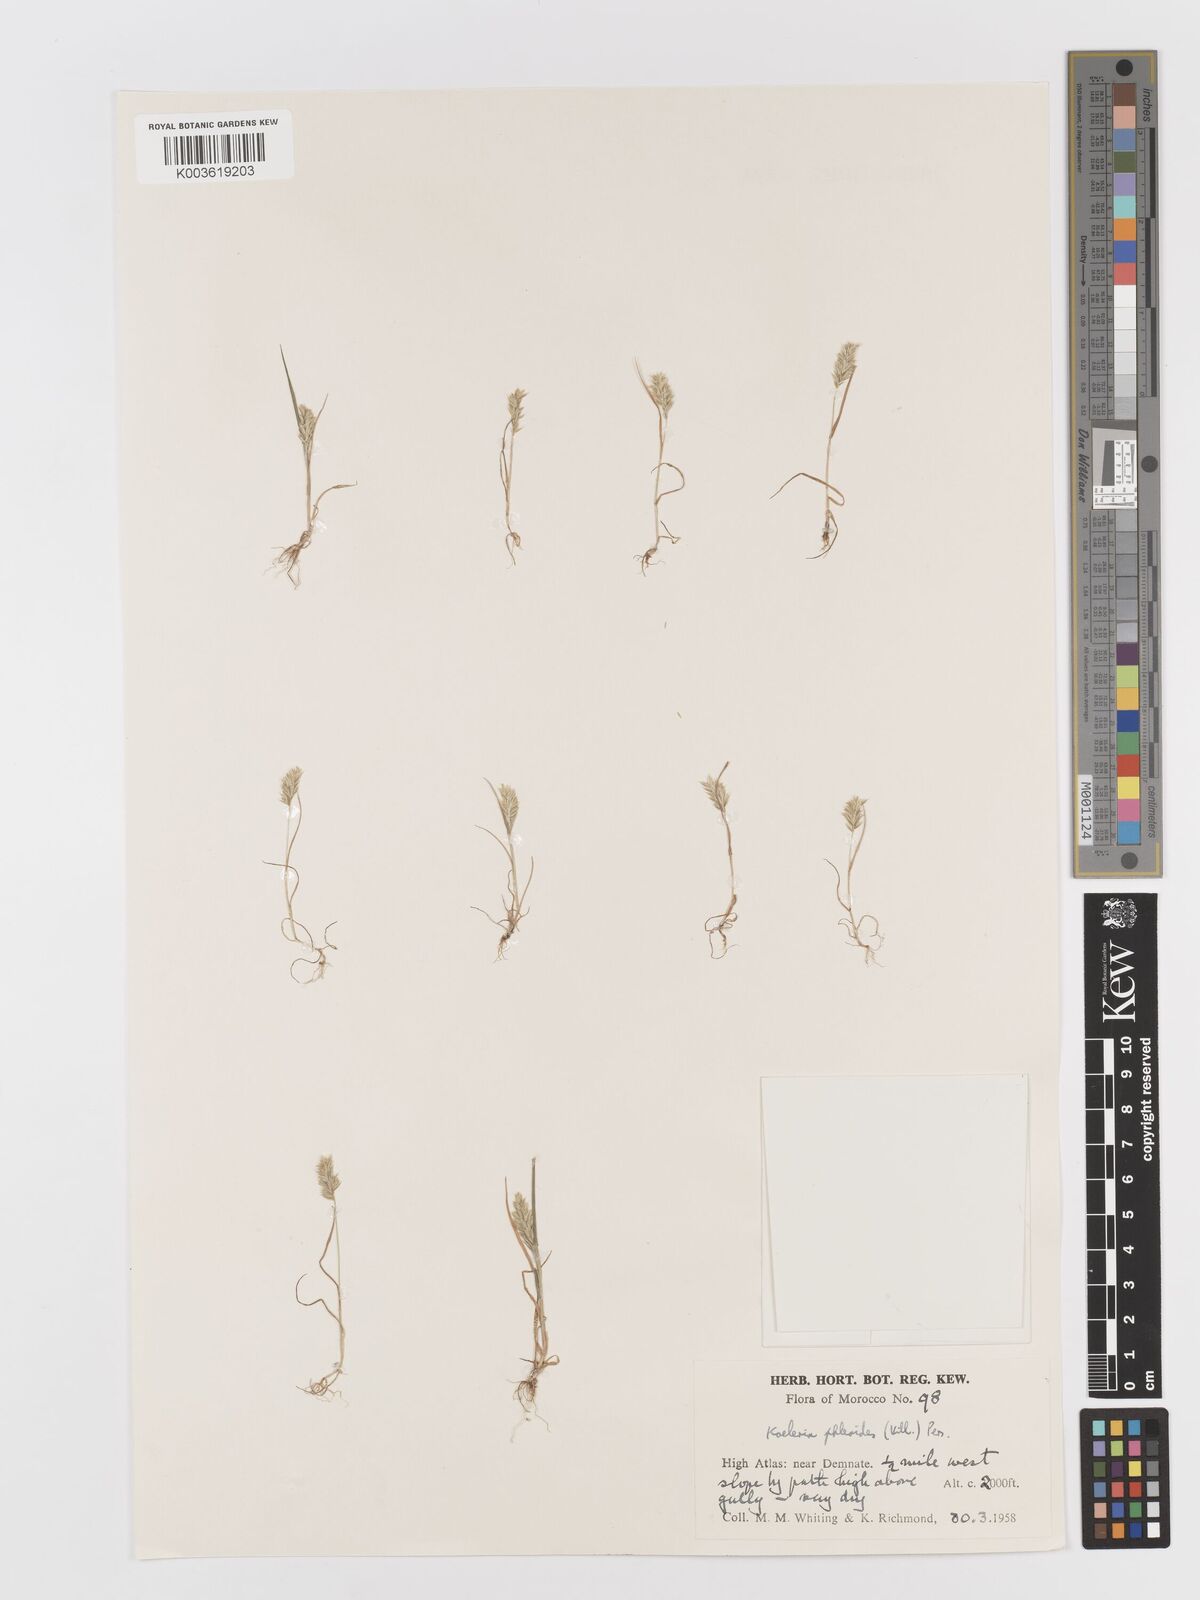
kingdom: Plantae
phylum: Tracheophyta
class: Liliopsida
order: Poales
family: Poaceae
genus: Rostraria
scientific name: Rostraria cristata
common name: Mediterranean hair-grass
